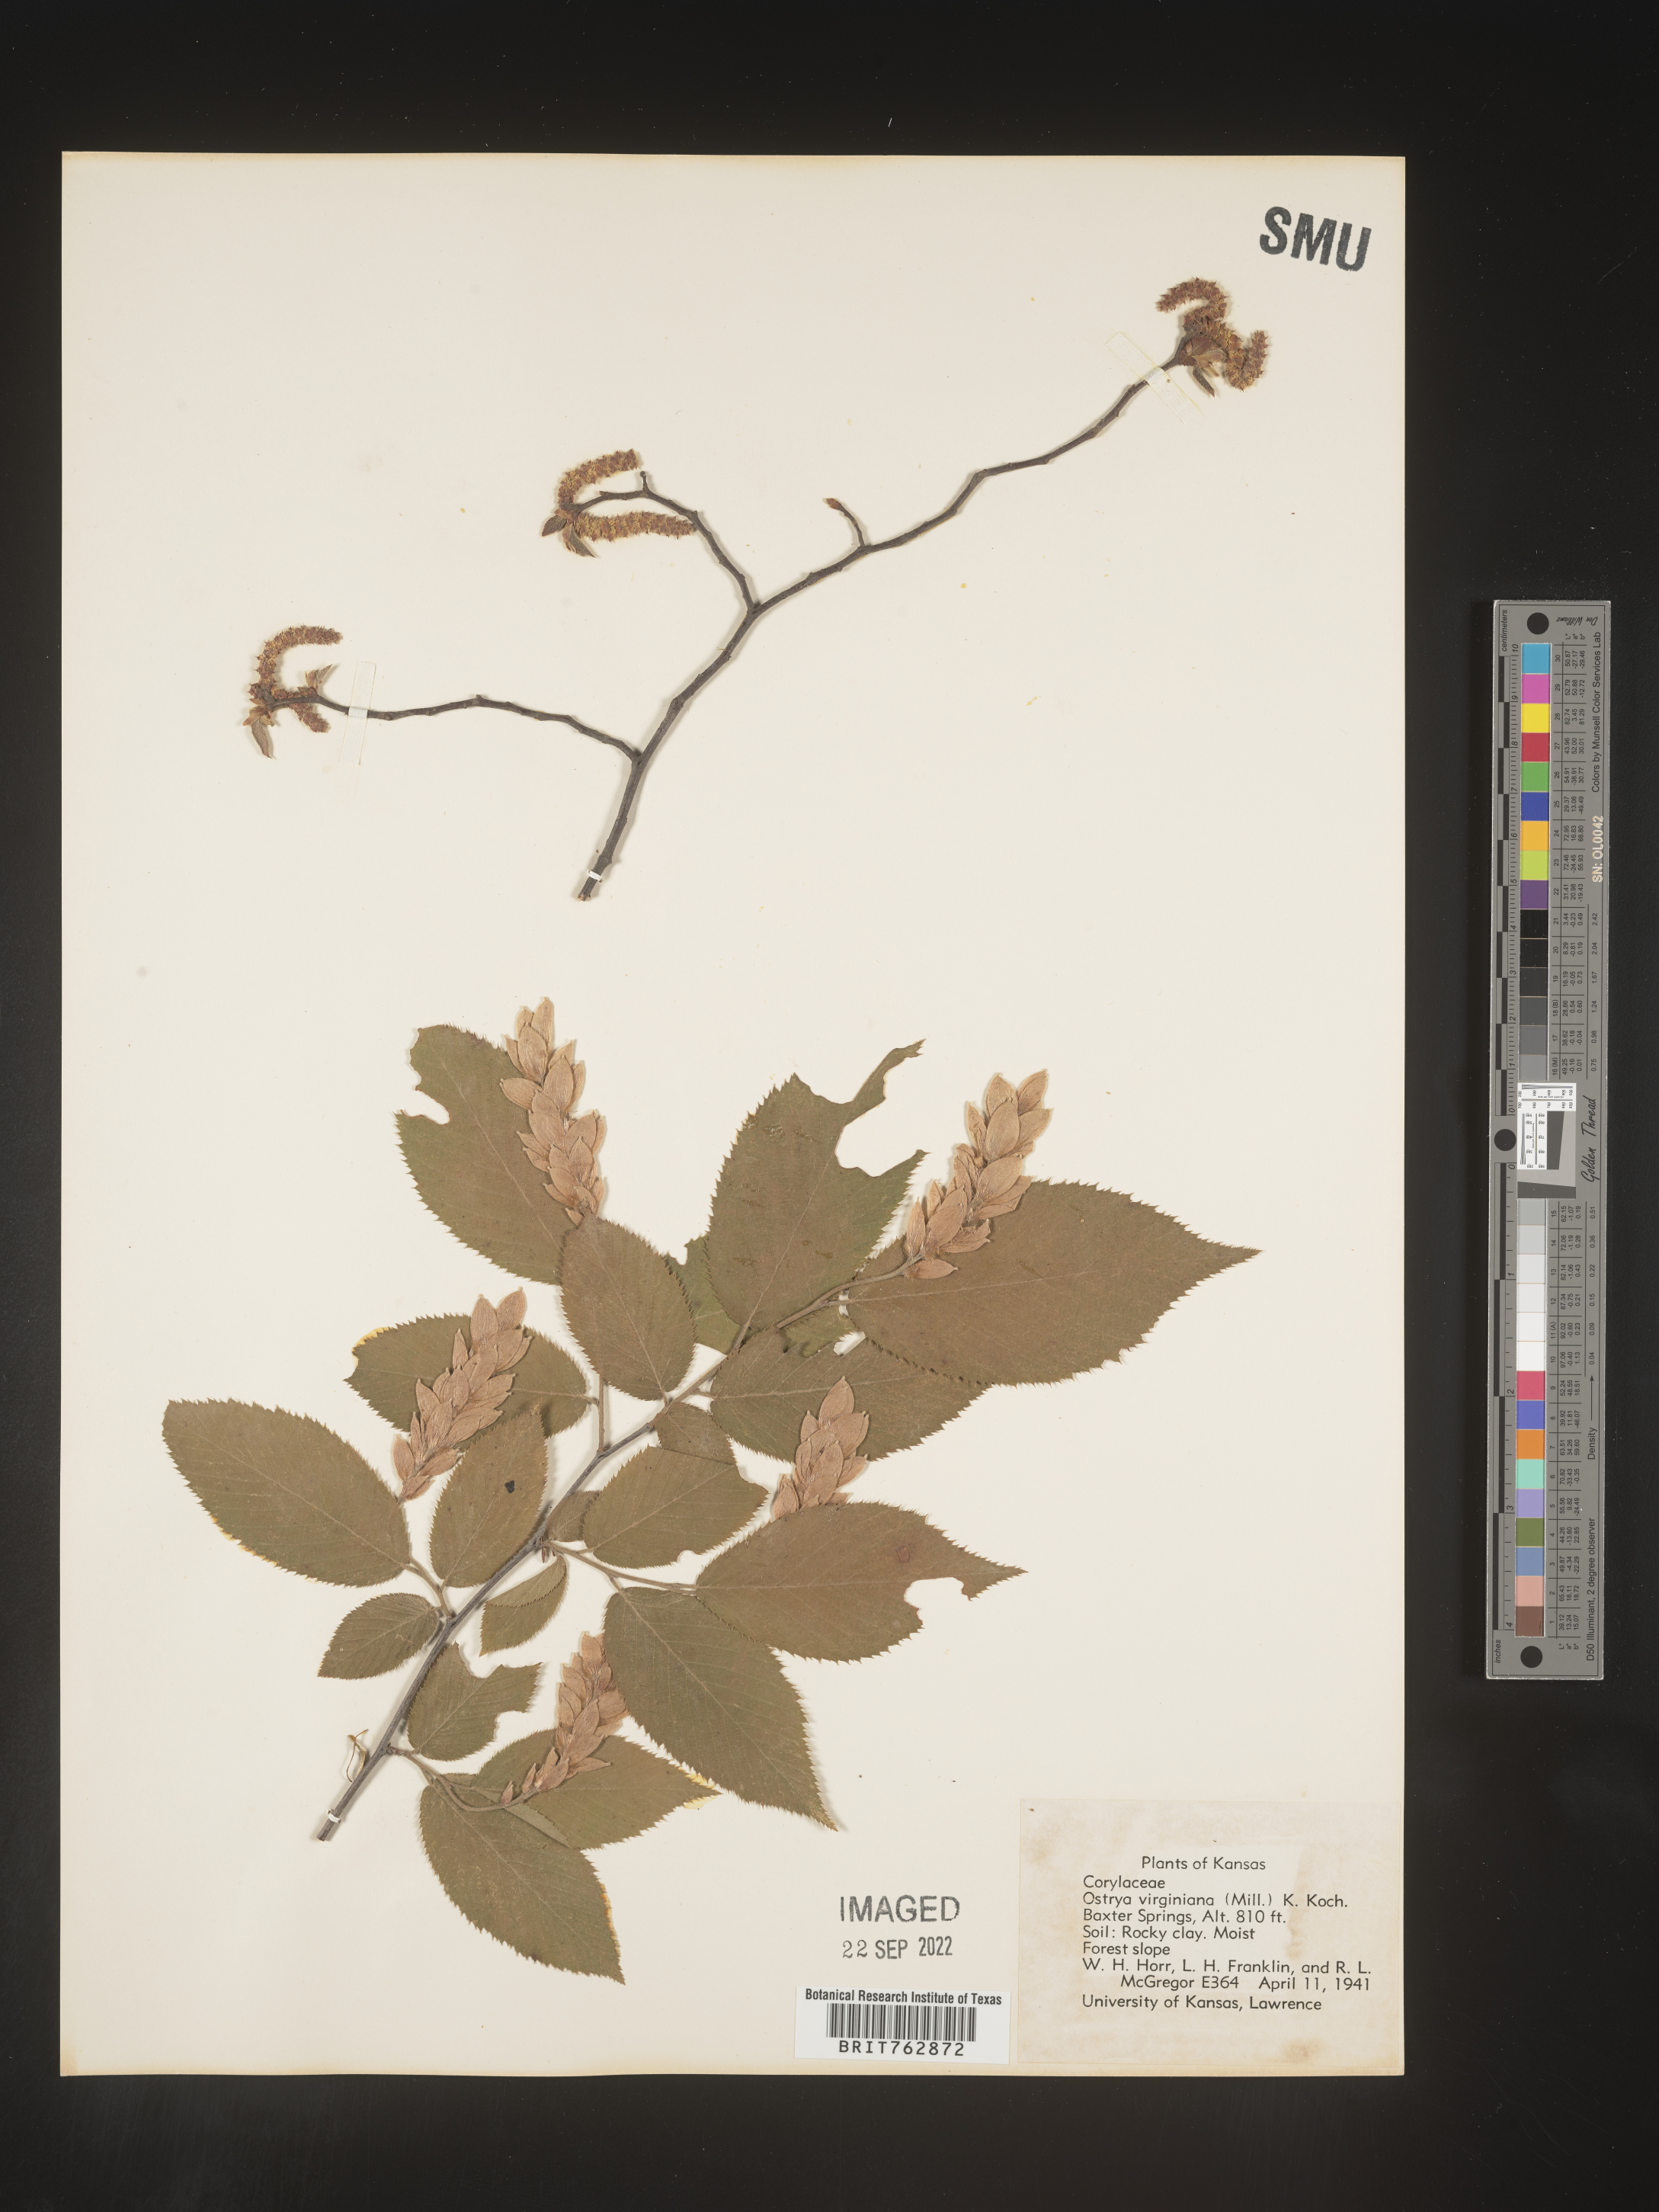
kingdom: Plantae
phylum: Tracheophyta
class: Magnoliopsida
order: Fagales
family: Betulaceae
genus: Ostrya
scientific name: Ostrya virginiana
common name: Ironwood
